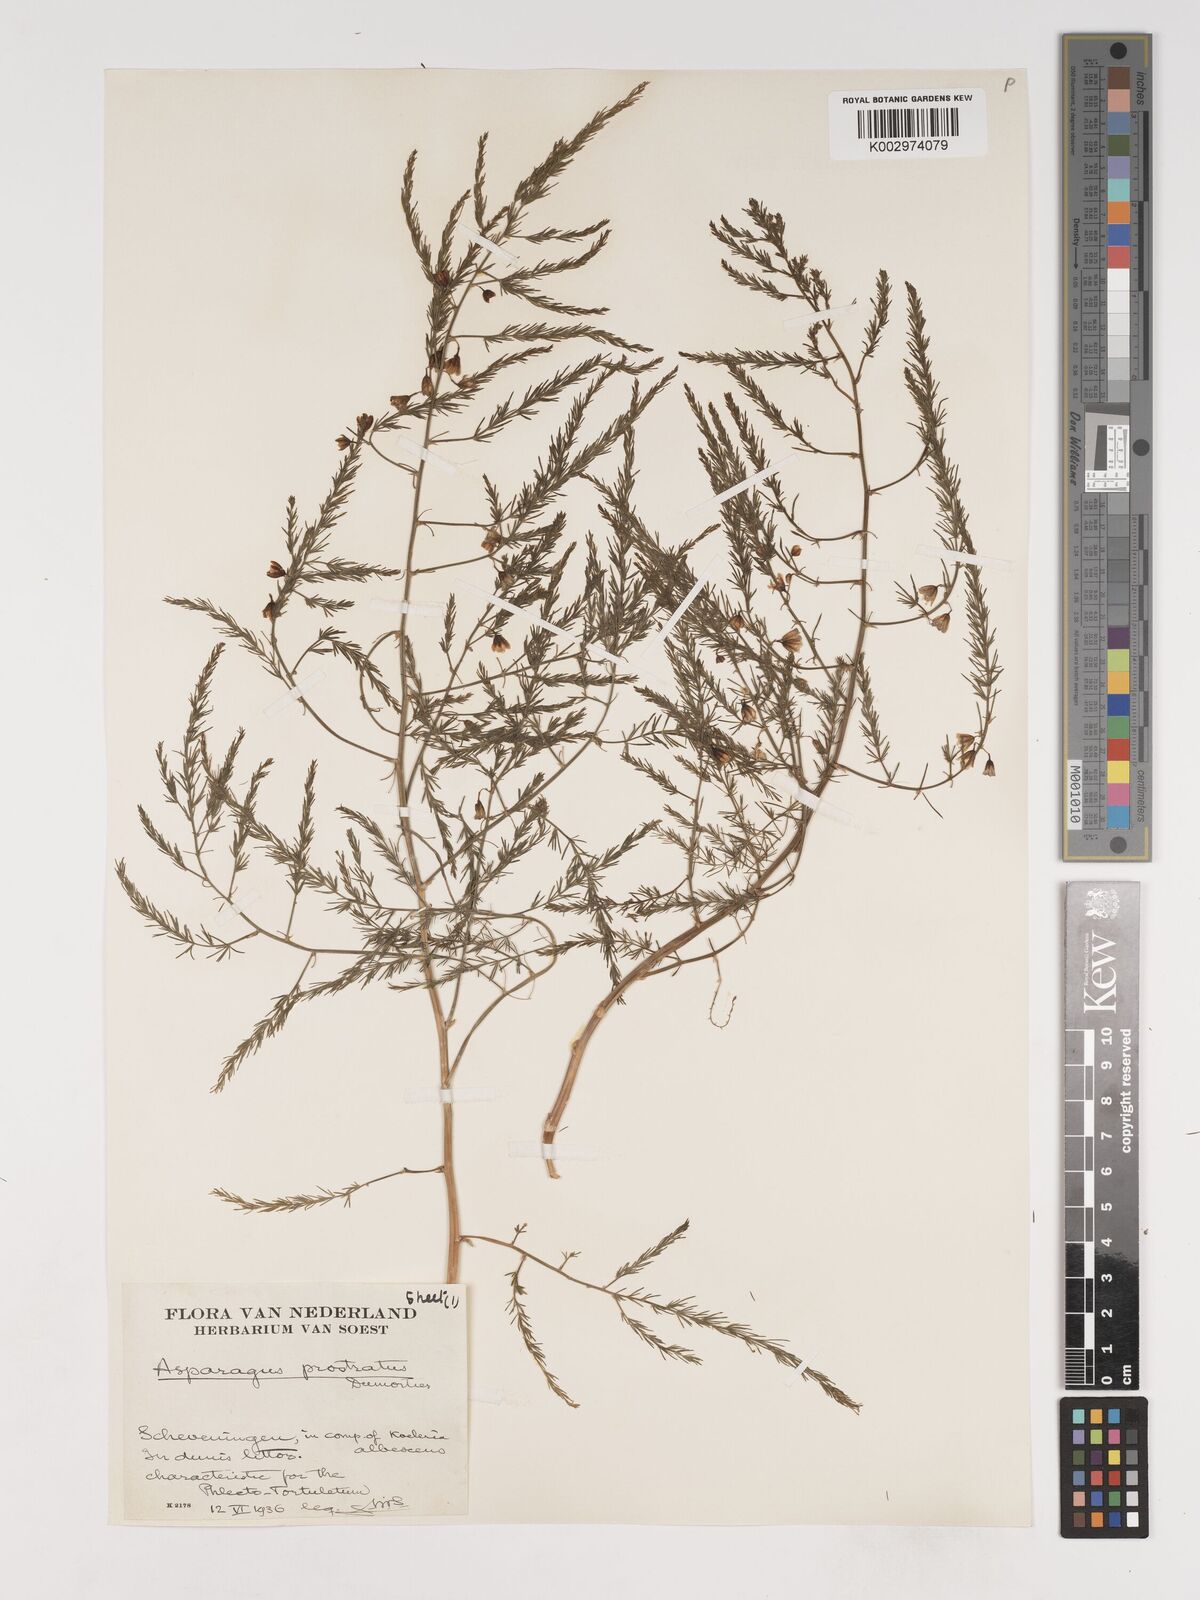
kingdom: Plantae
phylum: Tracheophyta
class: Liliopsida
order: Asparagales
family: Asparagaceae
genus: Asparagus
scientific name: Asparagus prostratus
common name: Wild asparagus
